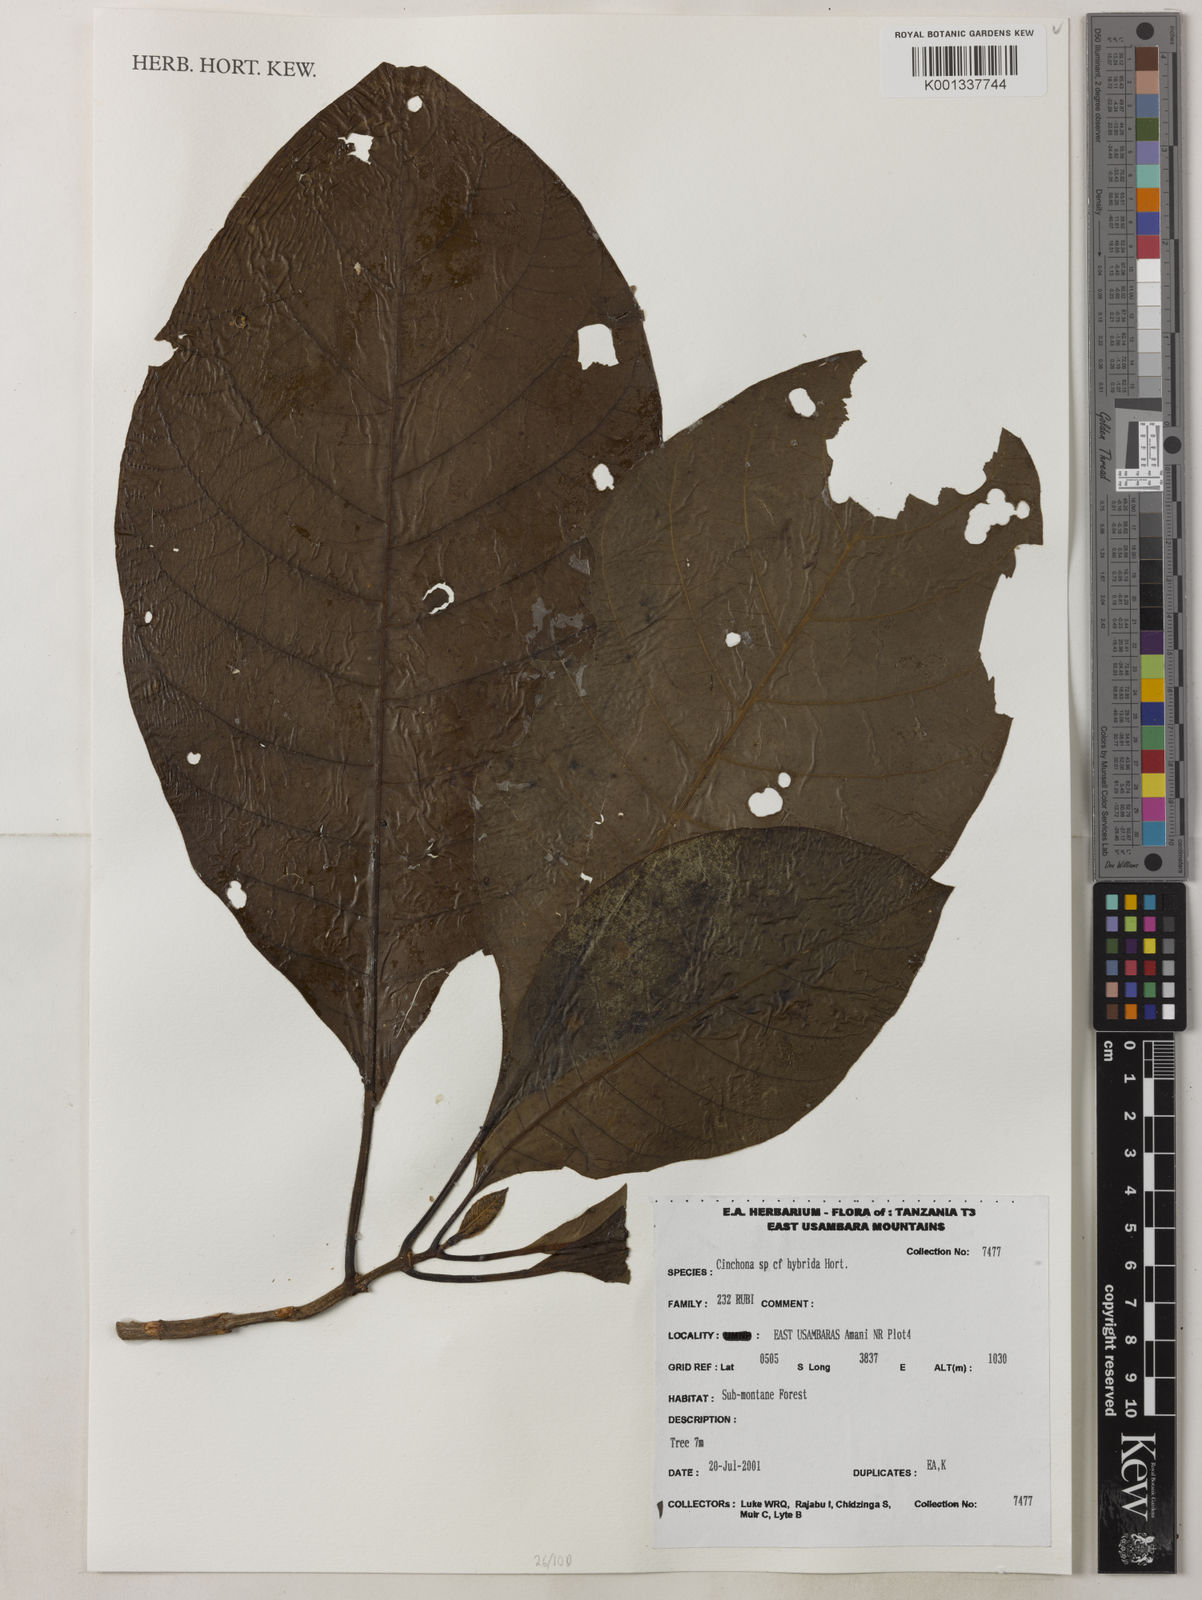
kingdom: Plantae
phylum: Tracheophyta
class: Magnoliopsida
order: Gentianales
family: Rubiaceae
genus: Cinchona
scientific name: Cinchona
